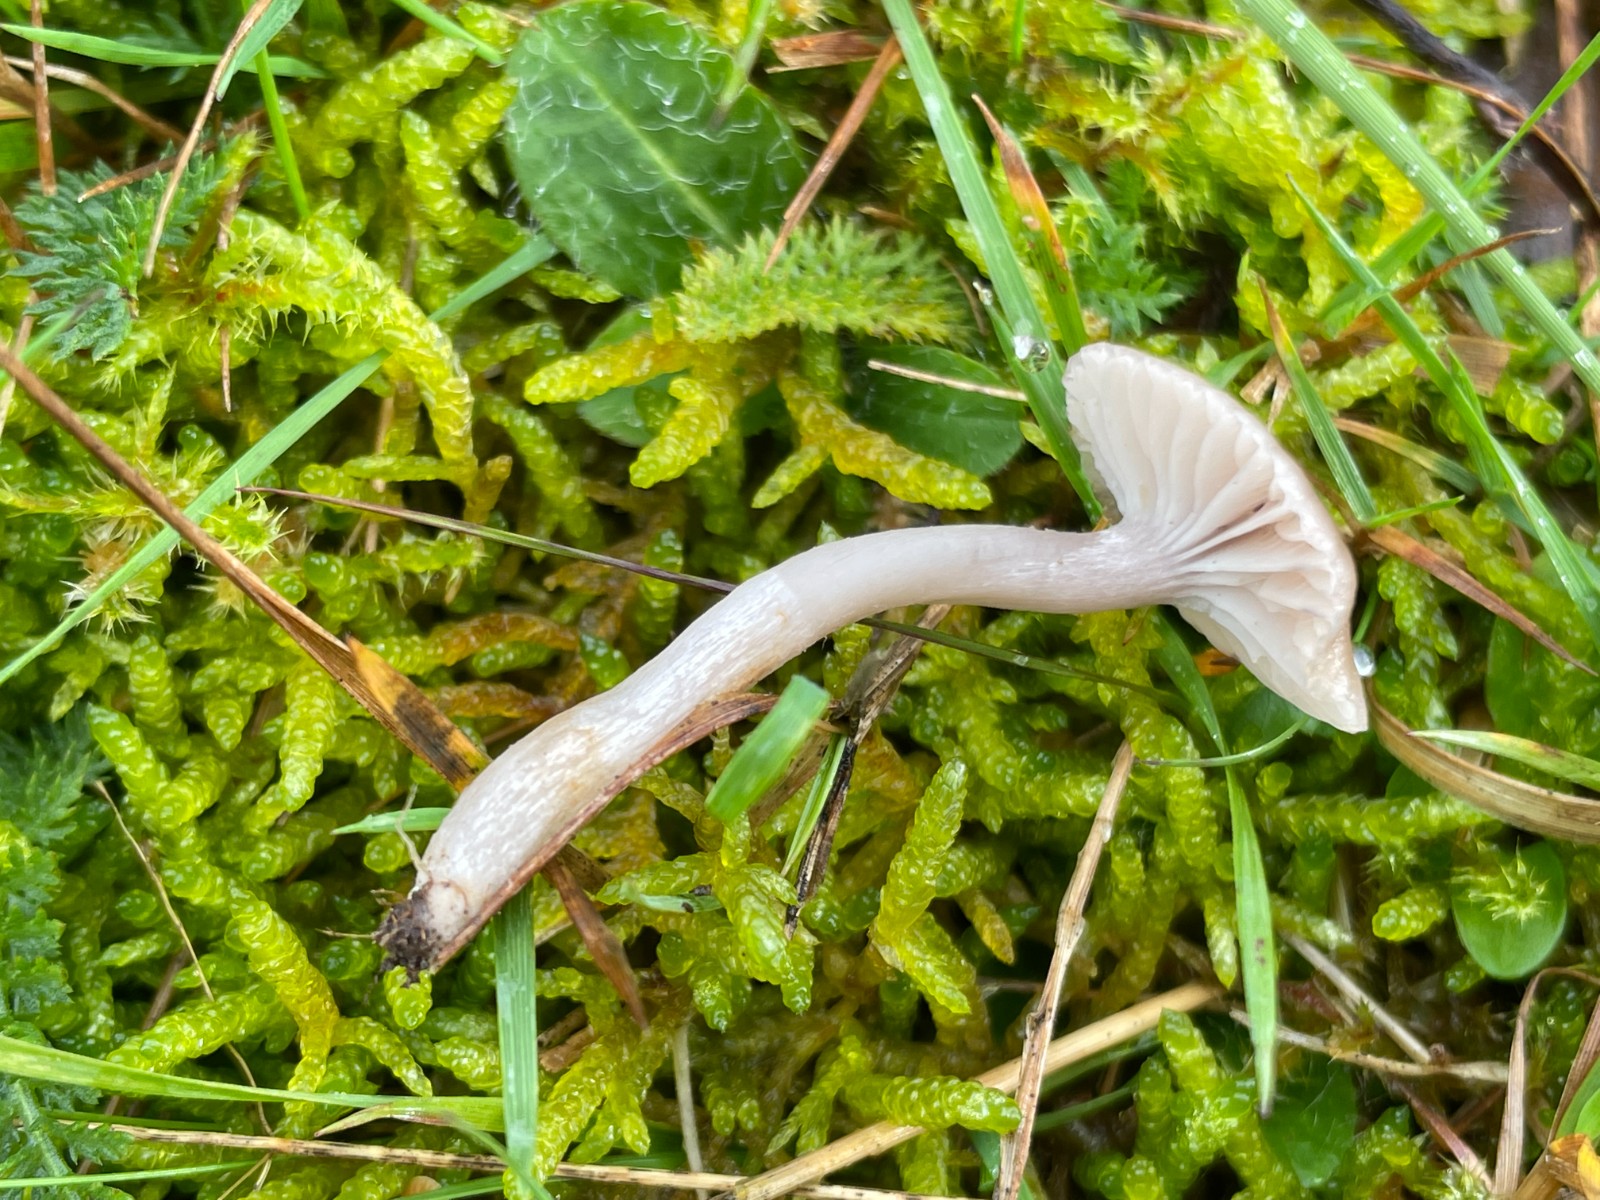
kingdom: Fungi
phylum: Basidiomycota
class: Agaricomycetes
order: Agaricales
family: Hygrophoraceae
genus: Cuphophyllus
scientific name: Cuphophyllus
